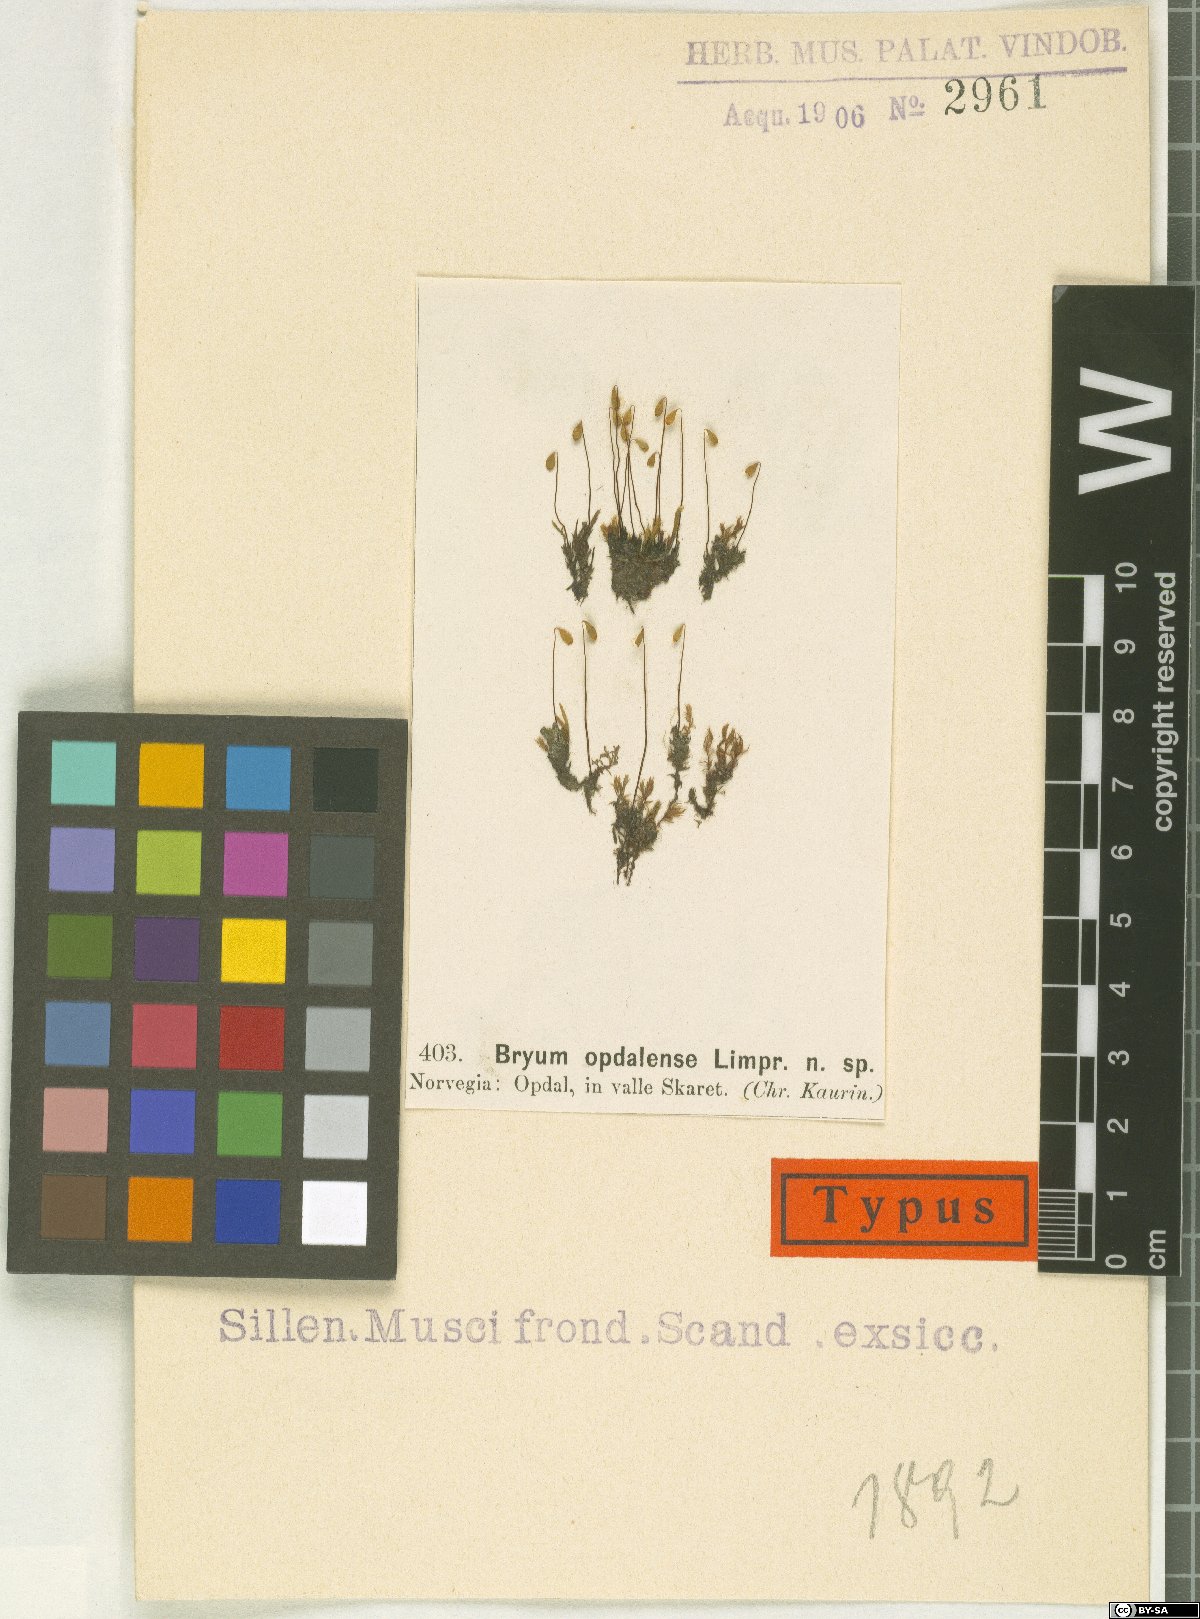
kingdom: Plantae
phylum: Bryophyta
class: Bryopsida
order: Bryales
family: Bryaceae
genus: Ptychostomum
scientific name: Ptychostomum purpurascens
